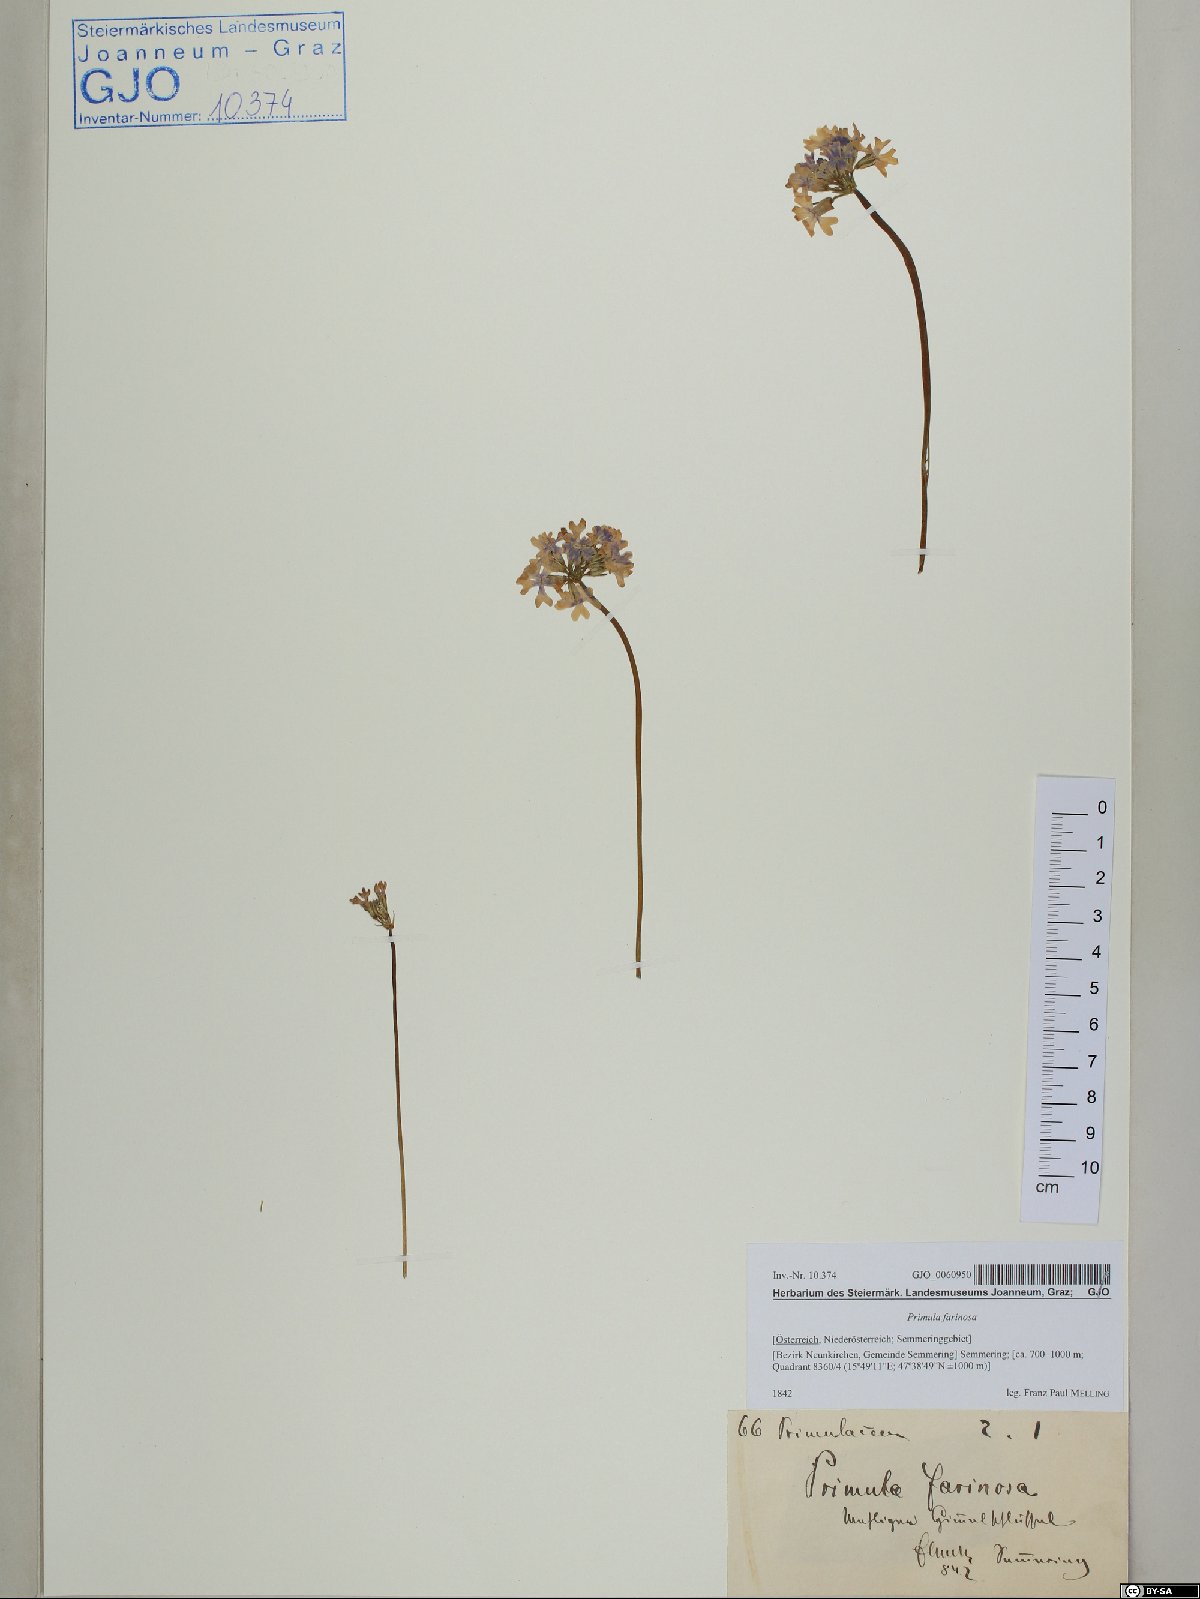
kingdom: Plantae
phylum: Tracheophyta
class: Magnoliopsida
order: Ericales
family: Primulaceae
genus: Primula
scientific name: Primula farinosa
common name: Bird's-eye primrose
